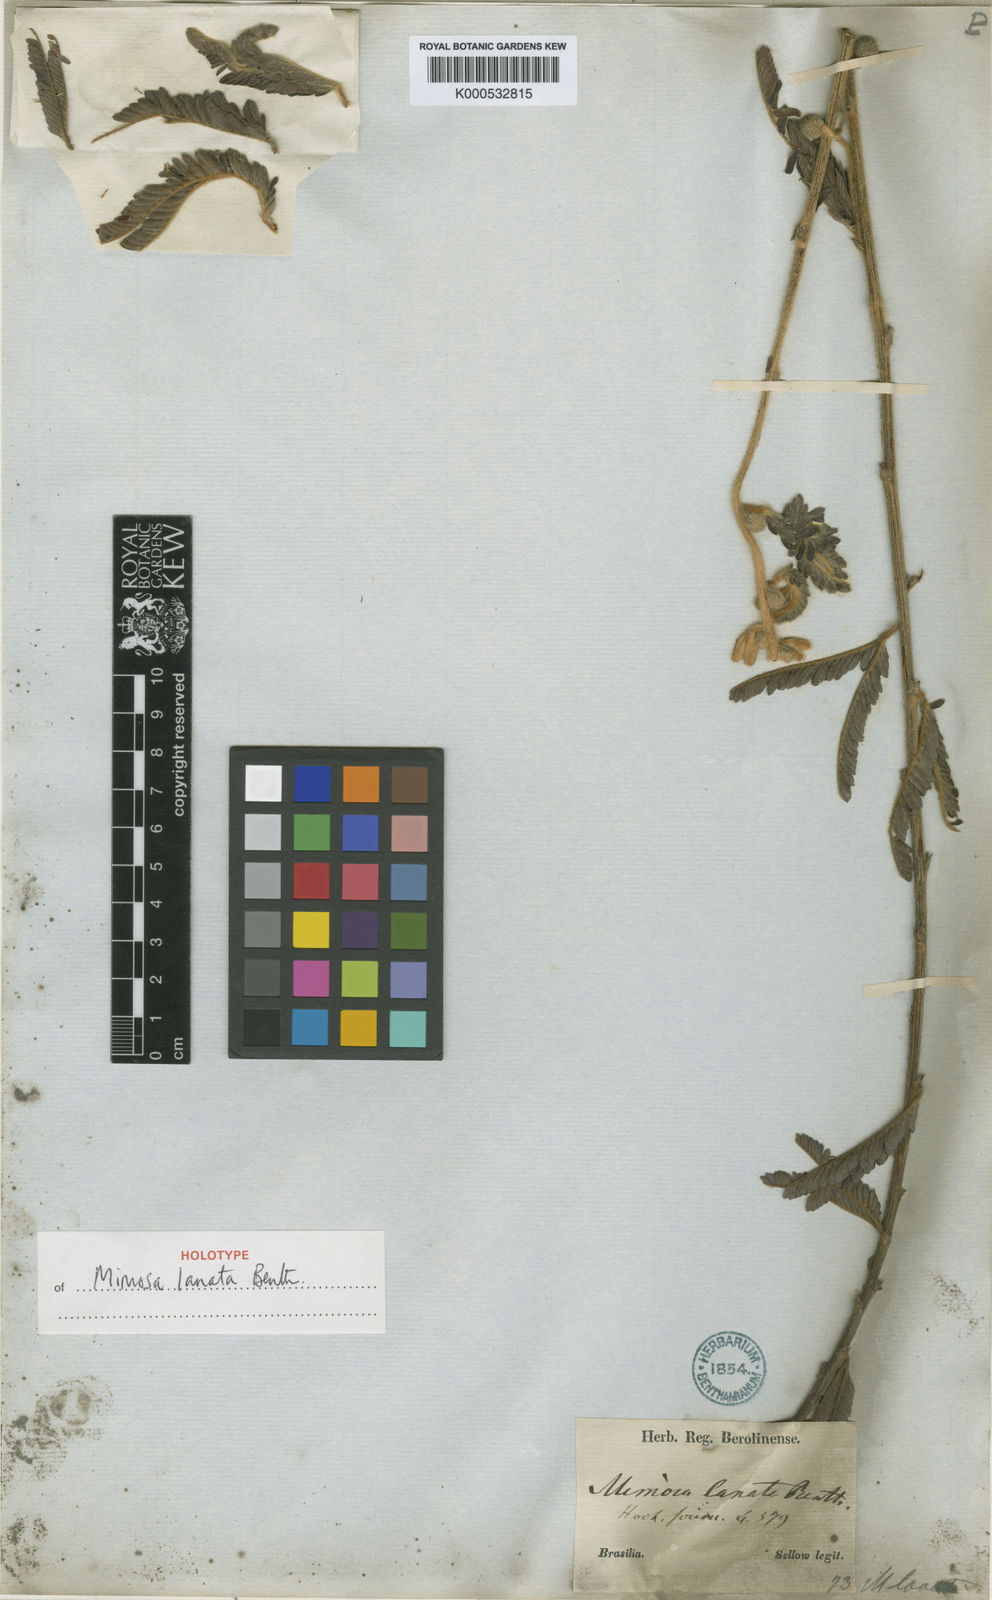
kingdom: Plantae
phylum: Tracheophyta
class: Magnoliopsida
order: Fabales
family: Fabaceae
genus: Mimosa
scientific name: Mimosa lanata
